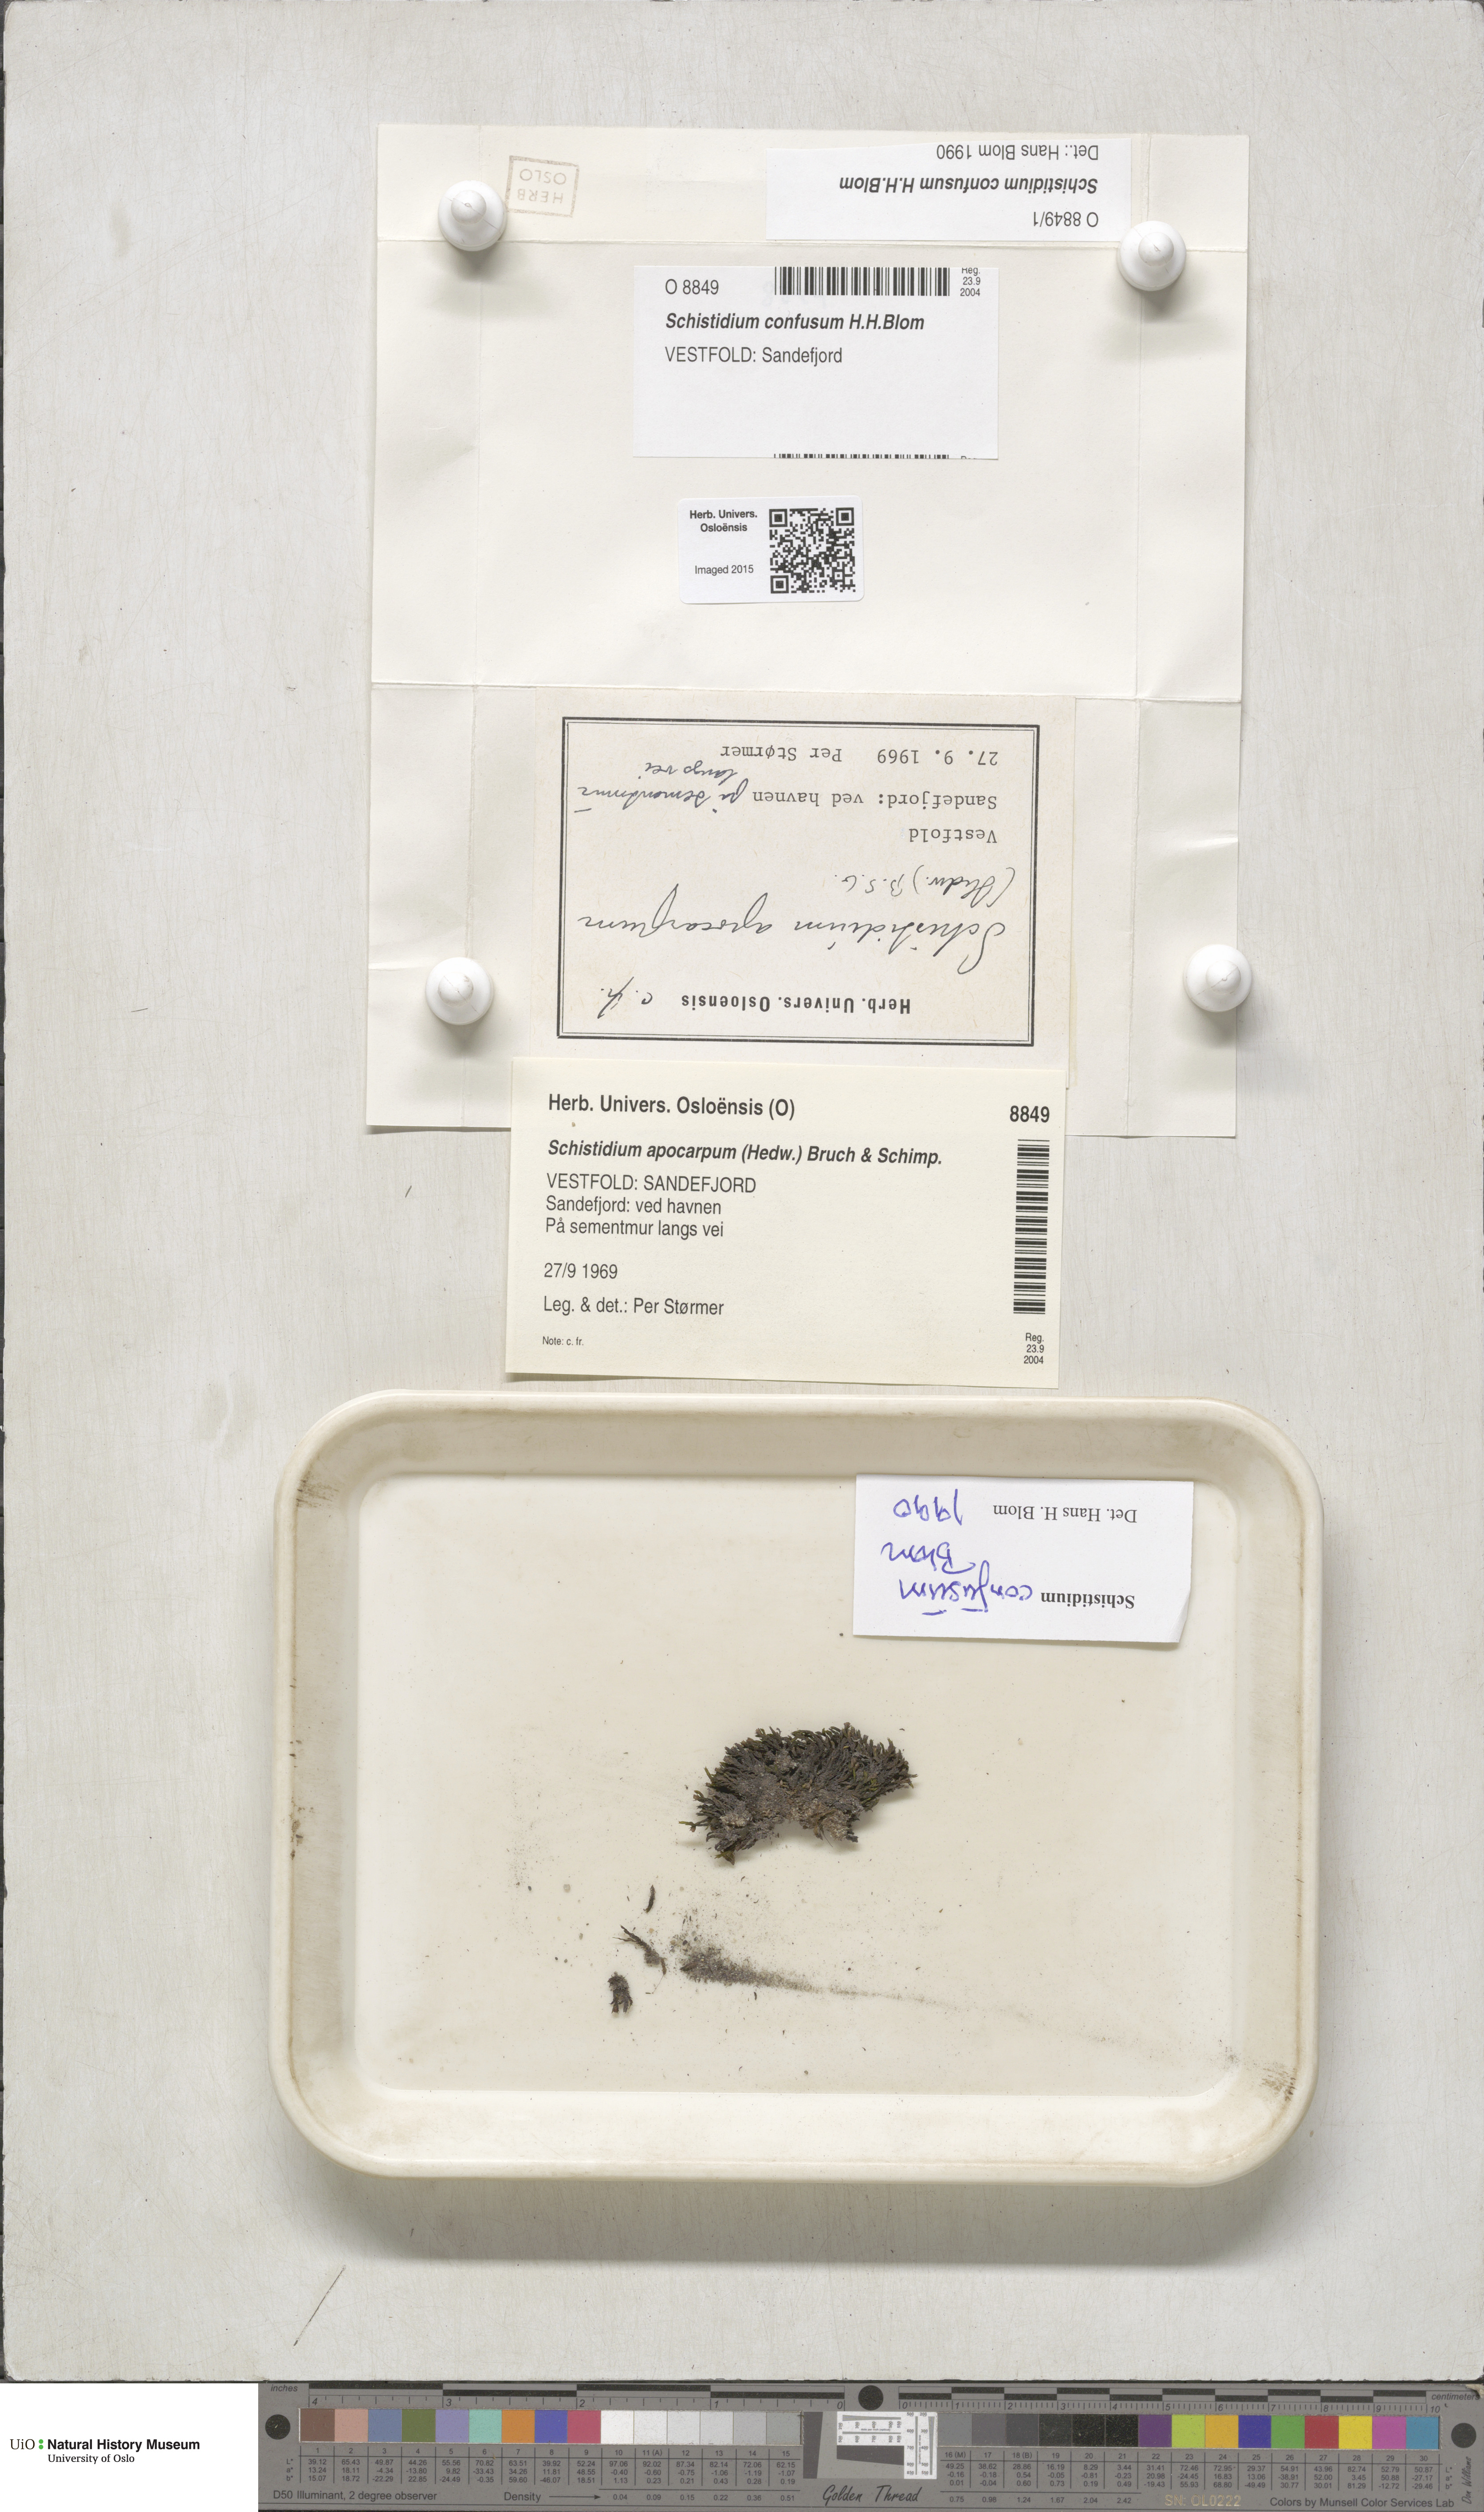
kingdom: Plantae
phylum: Bryophyta
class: Bryopsida
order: Grimmiales
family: Grimmiaceae
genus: Schistidium
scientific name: Schistidium confusum
